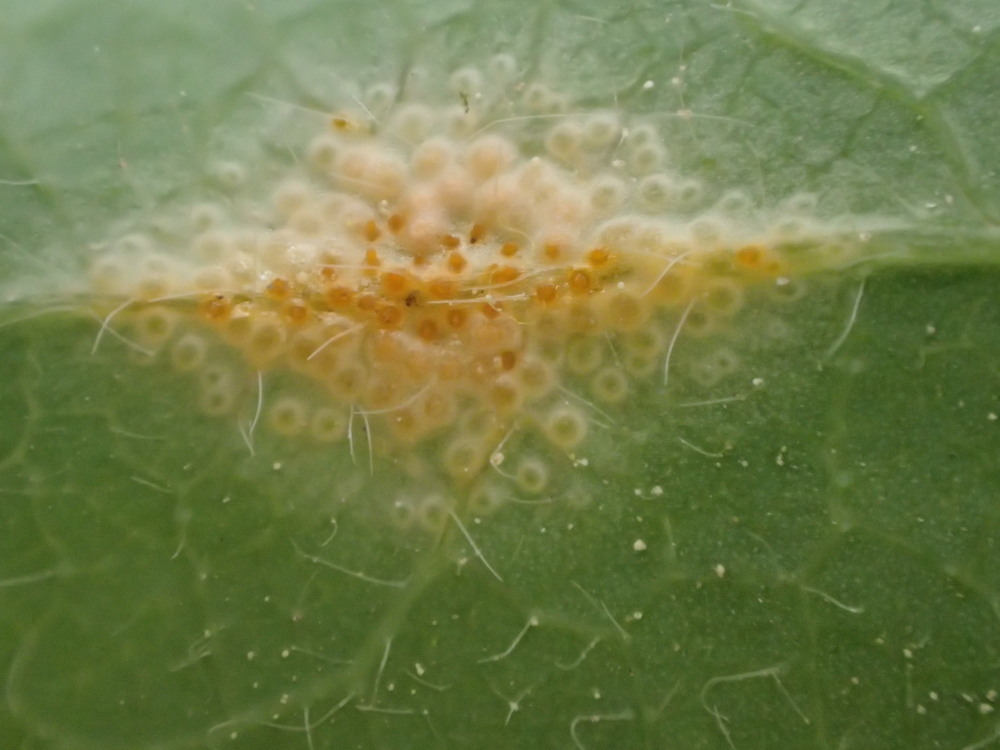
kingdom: Fungi
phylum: Basidiomycota
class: Pucciniomycetes
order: Pucciniales
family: Pucciniaceae
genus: Puccinia
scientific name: Puccinia festucae
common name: gedeblad-tvecellerust
